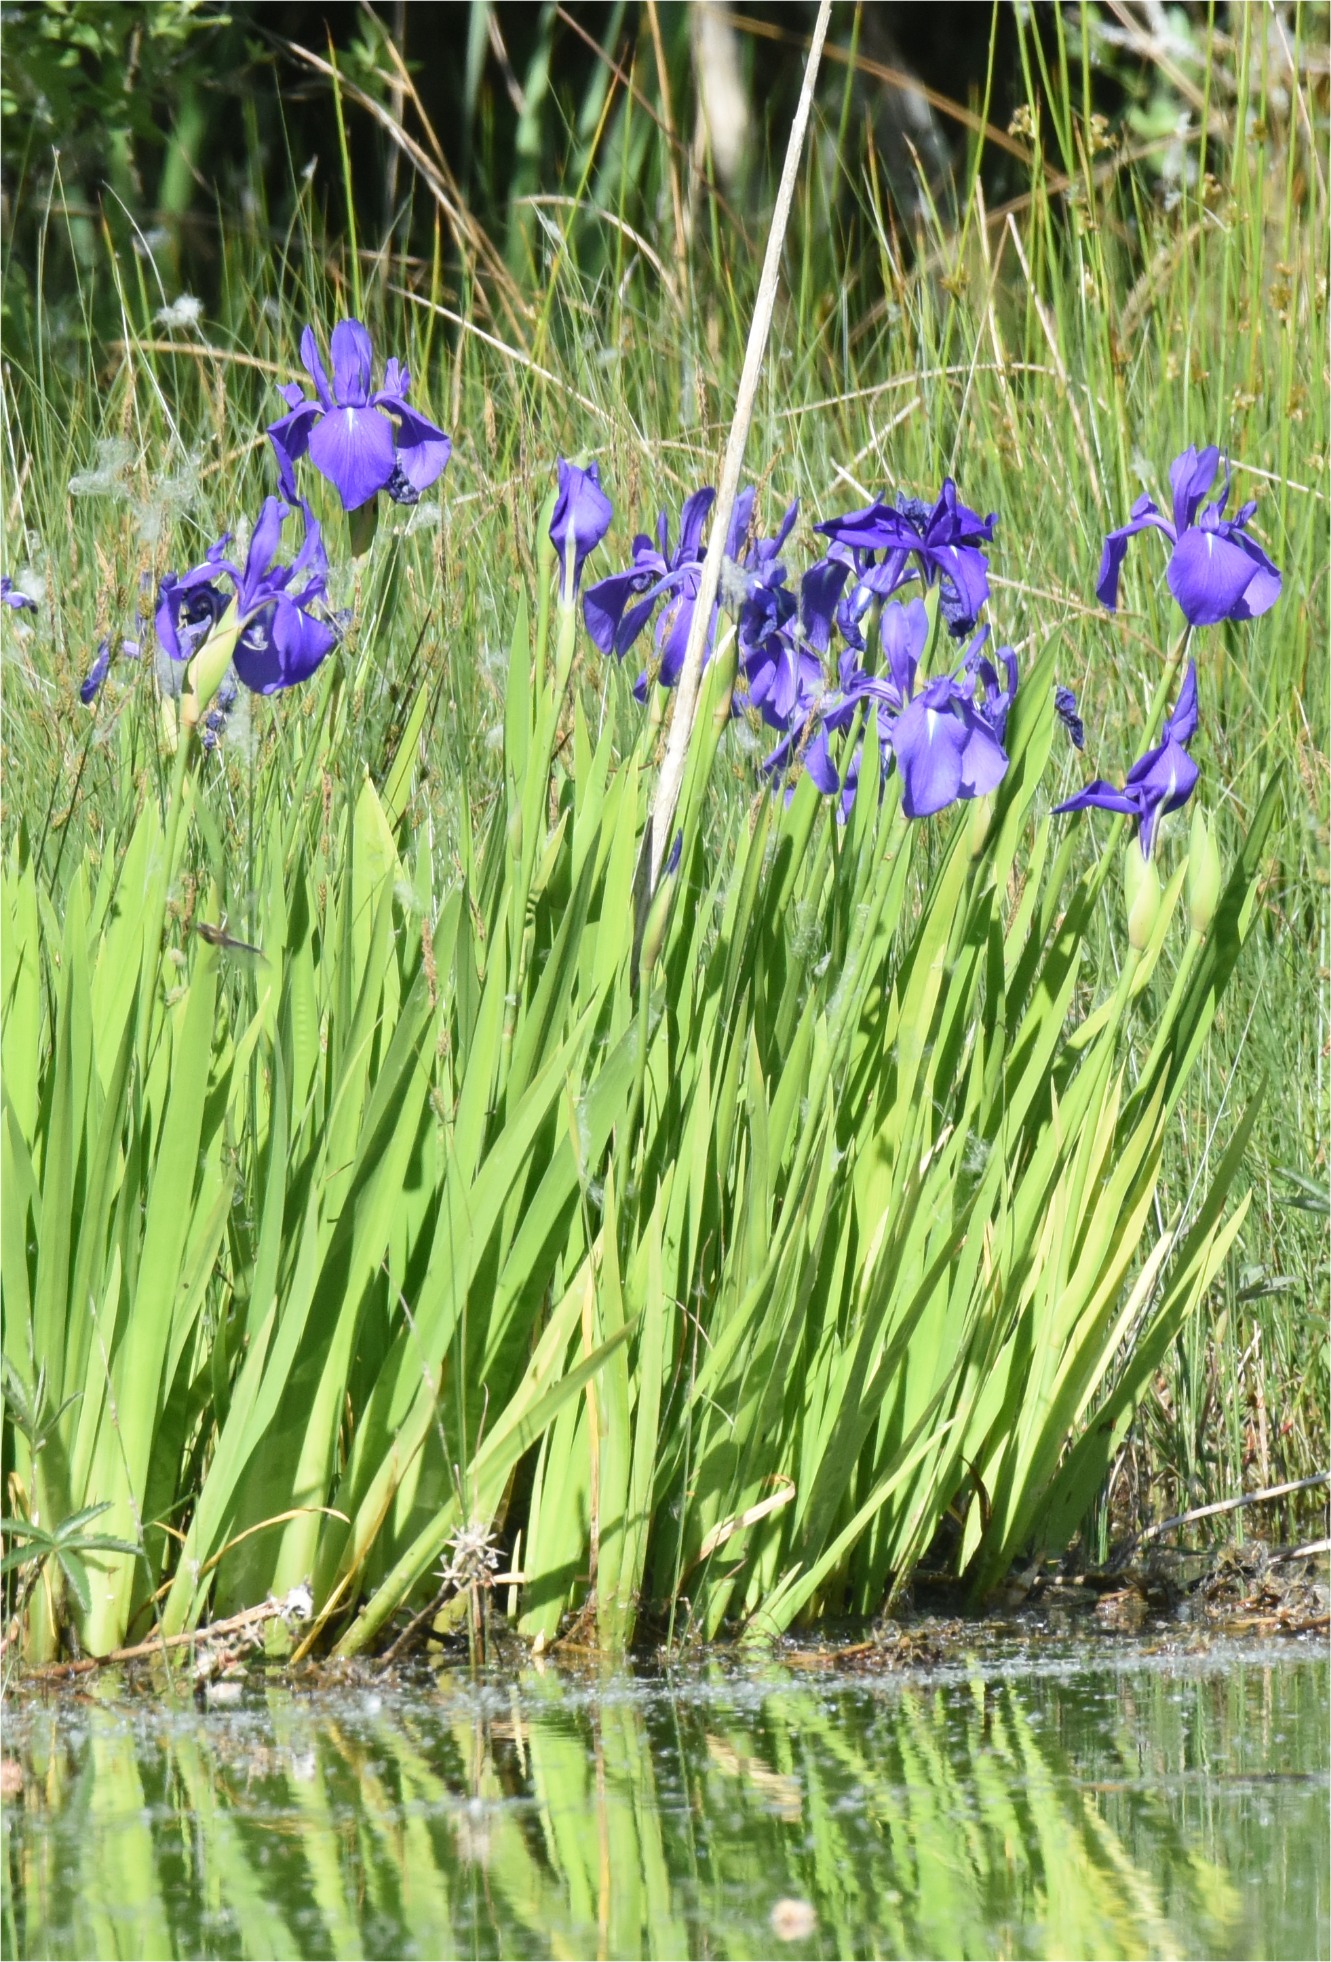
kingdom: Plantae
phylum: Tracheophyta
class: Liliopsida
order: Asparagales
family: Iridaceae
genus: Iris
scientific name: Iris laevigata
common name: Japansk iris
